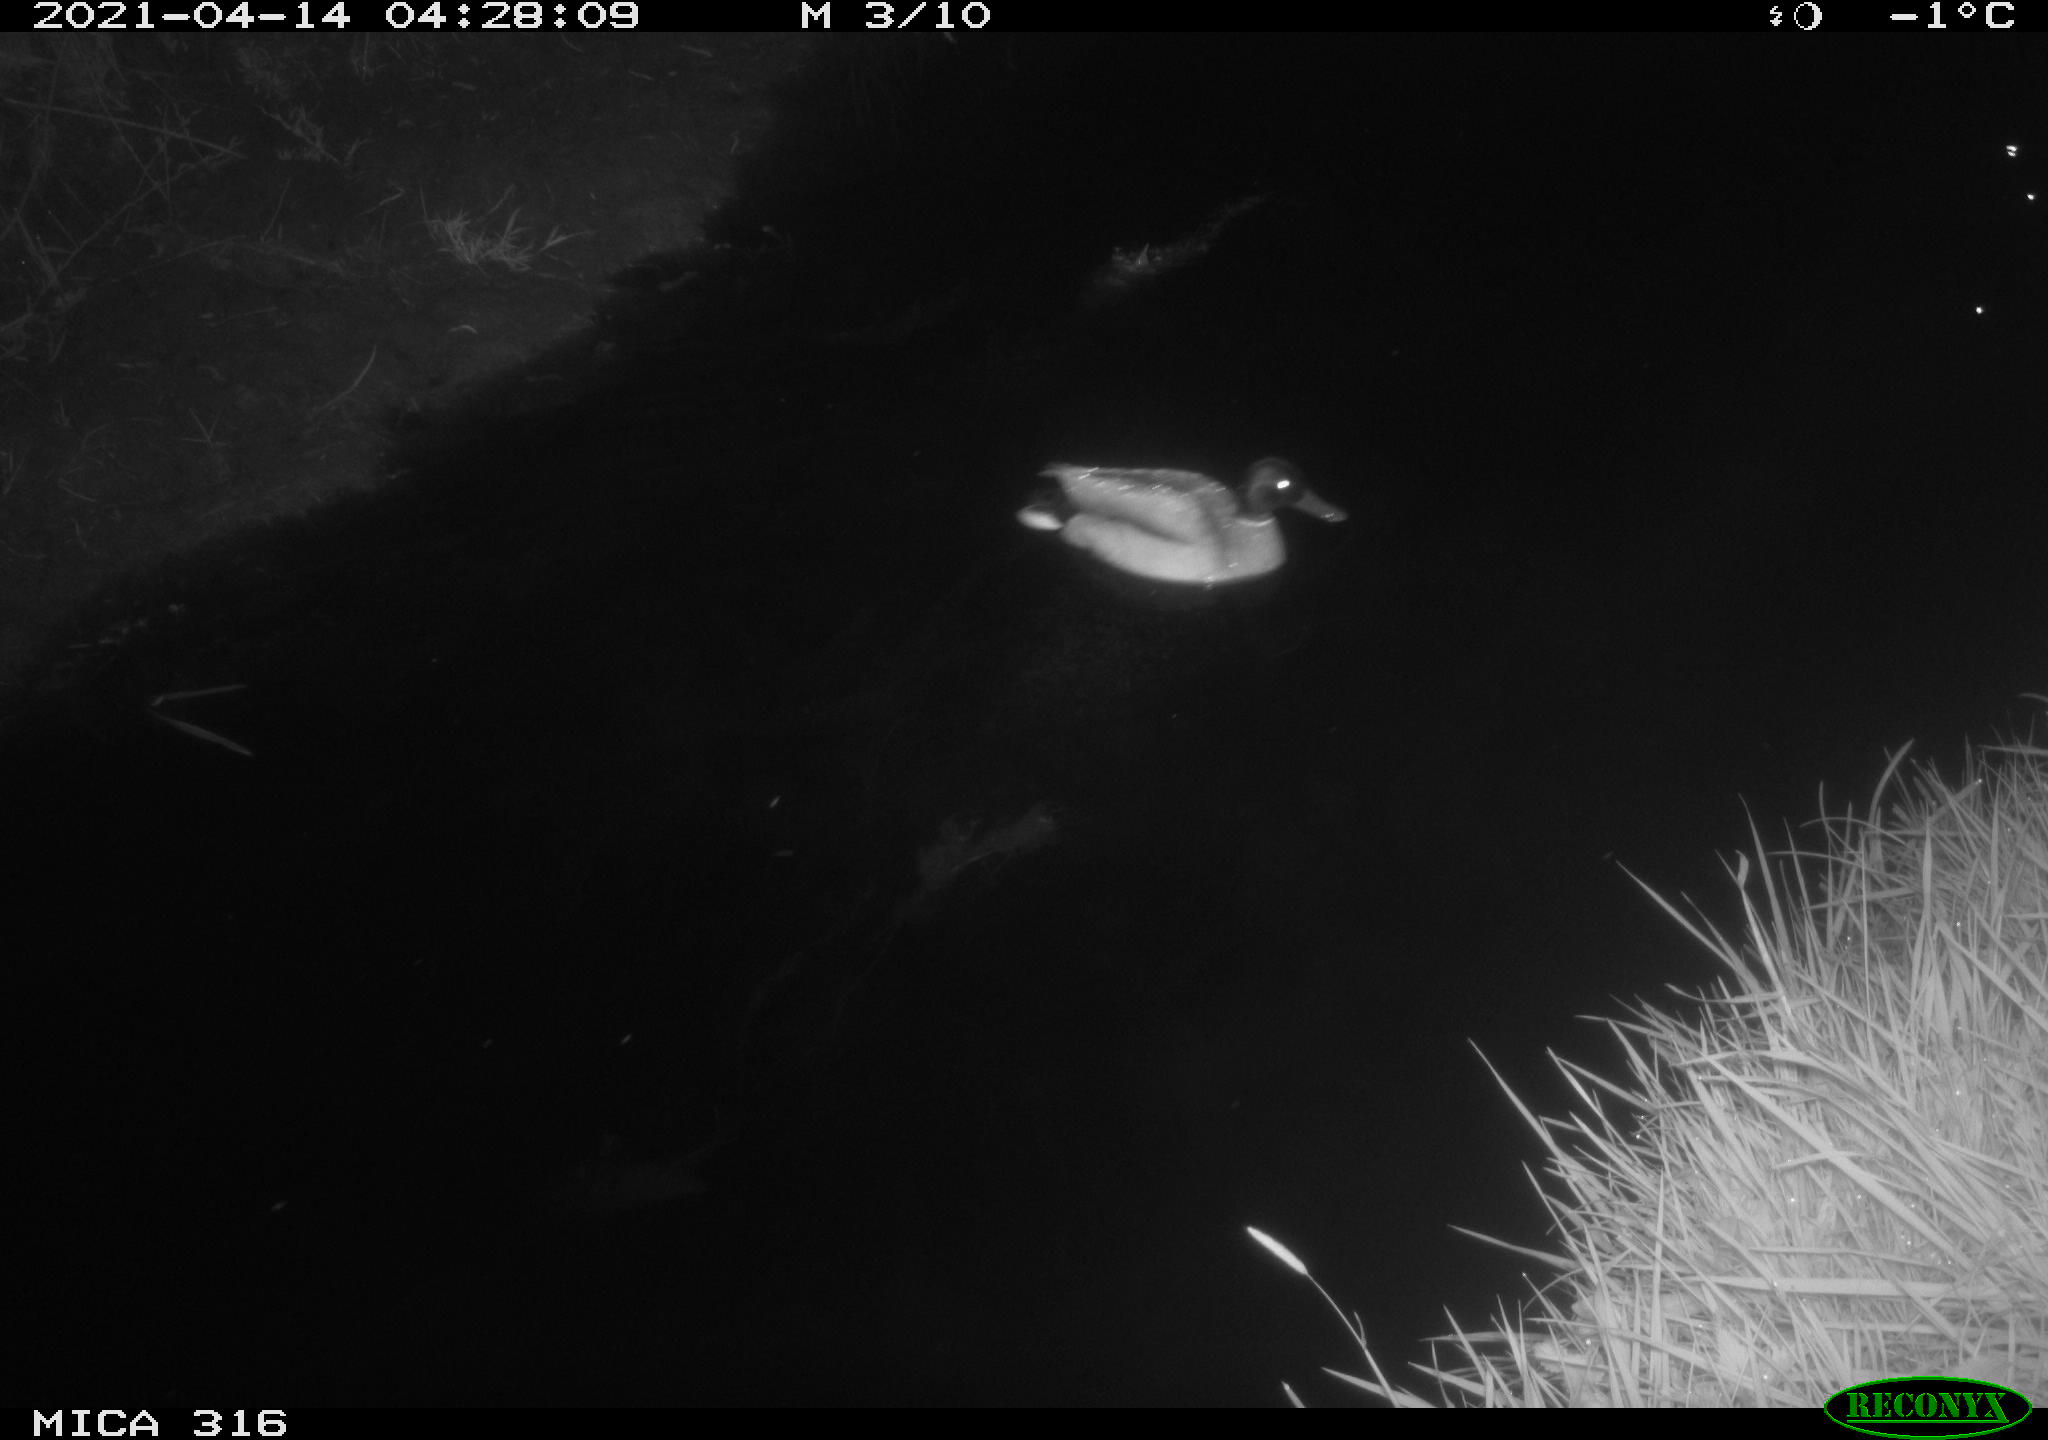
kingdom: Animalia
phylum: Chordata
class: Aves
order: Anseriformes
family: Anatidae
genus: Anas
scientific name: Anas platyrhynchos
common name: Mallard
